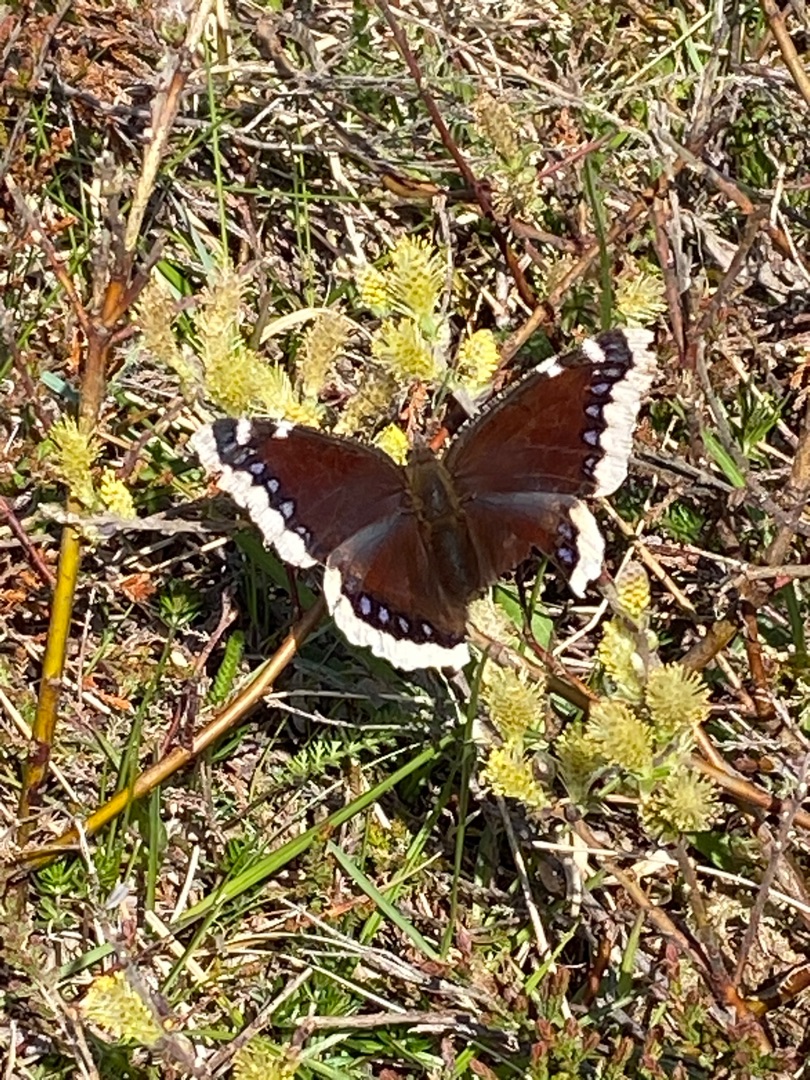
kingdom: Animalia
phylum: Arthropoda
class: Insecta
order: Lepidoptera
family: Nymphalidae
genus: Nymphalis
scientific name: Nymphalis antiopa
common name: Sørgekåbe
